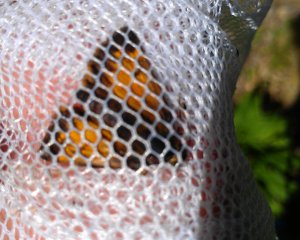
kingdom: Animalia
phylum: Arthropoda
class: Insecta
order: Lepidoptera
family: Hesperiidae
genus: Lon
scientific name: Lon hobomok
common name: Hobomok Skipper
